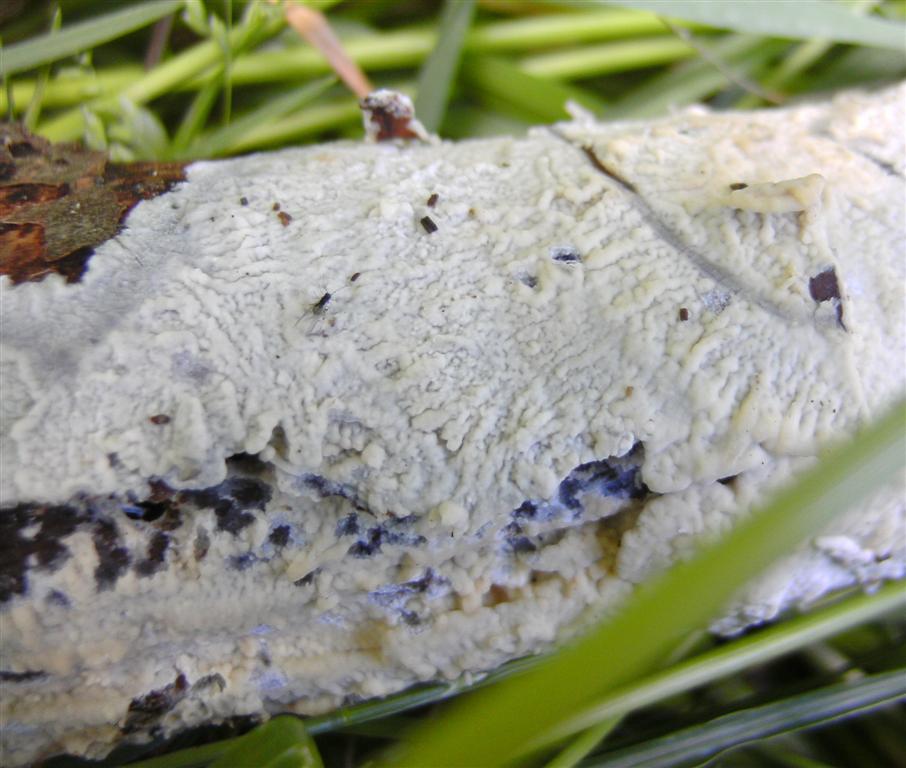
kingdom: Fungi
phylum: Basidiomycota
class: Agaricomycetes
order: Polyporales
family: Irpicaceae
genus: Efibula
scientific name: Efibula tuberculata
